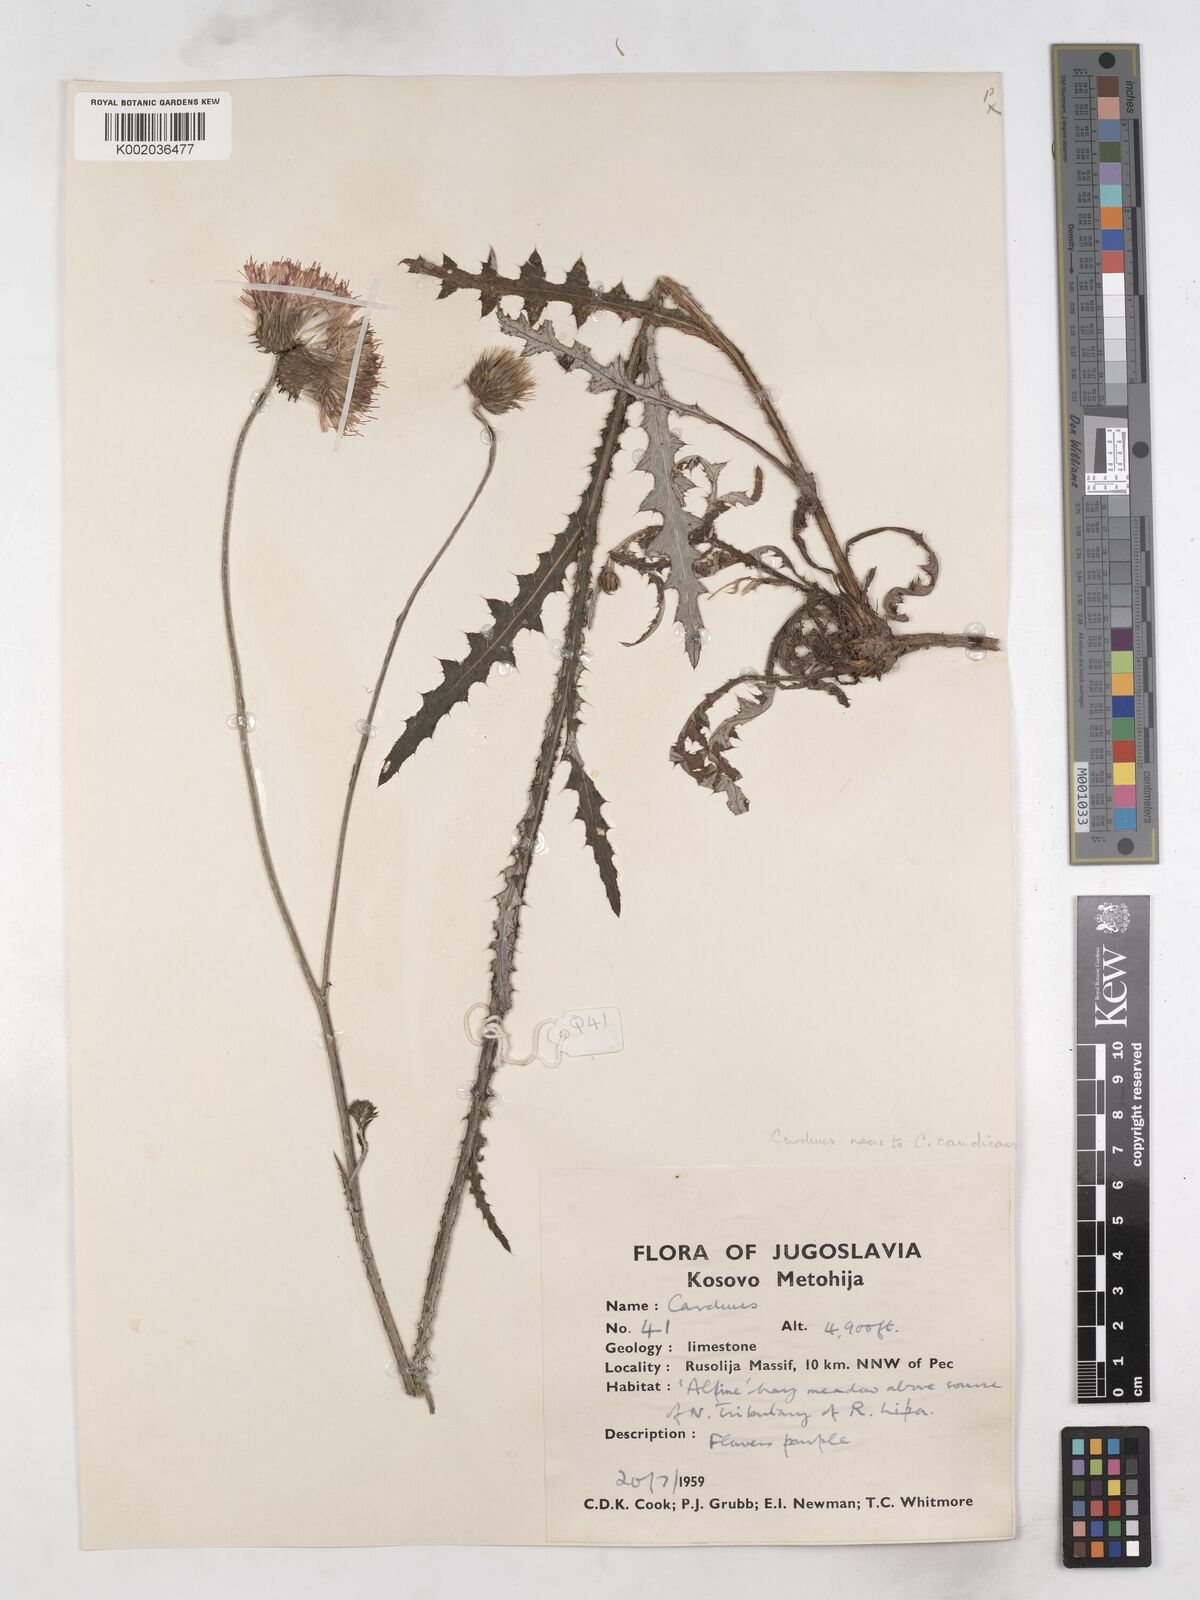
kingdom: Plantae
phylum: Tracheophyta
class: Magnoliopsida
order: Asterales
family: Asteraceae
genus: Carduus
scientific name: Carduus
